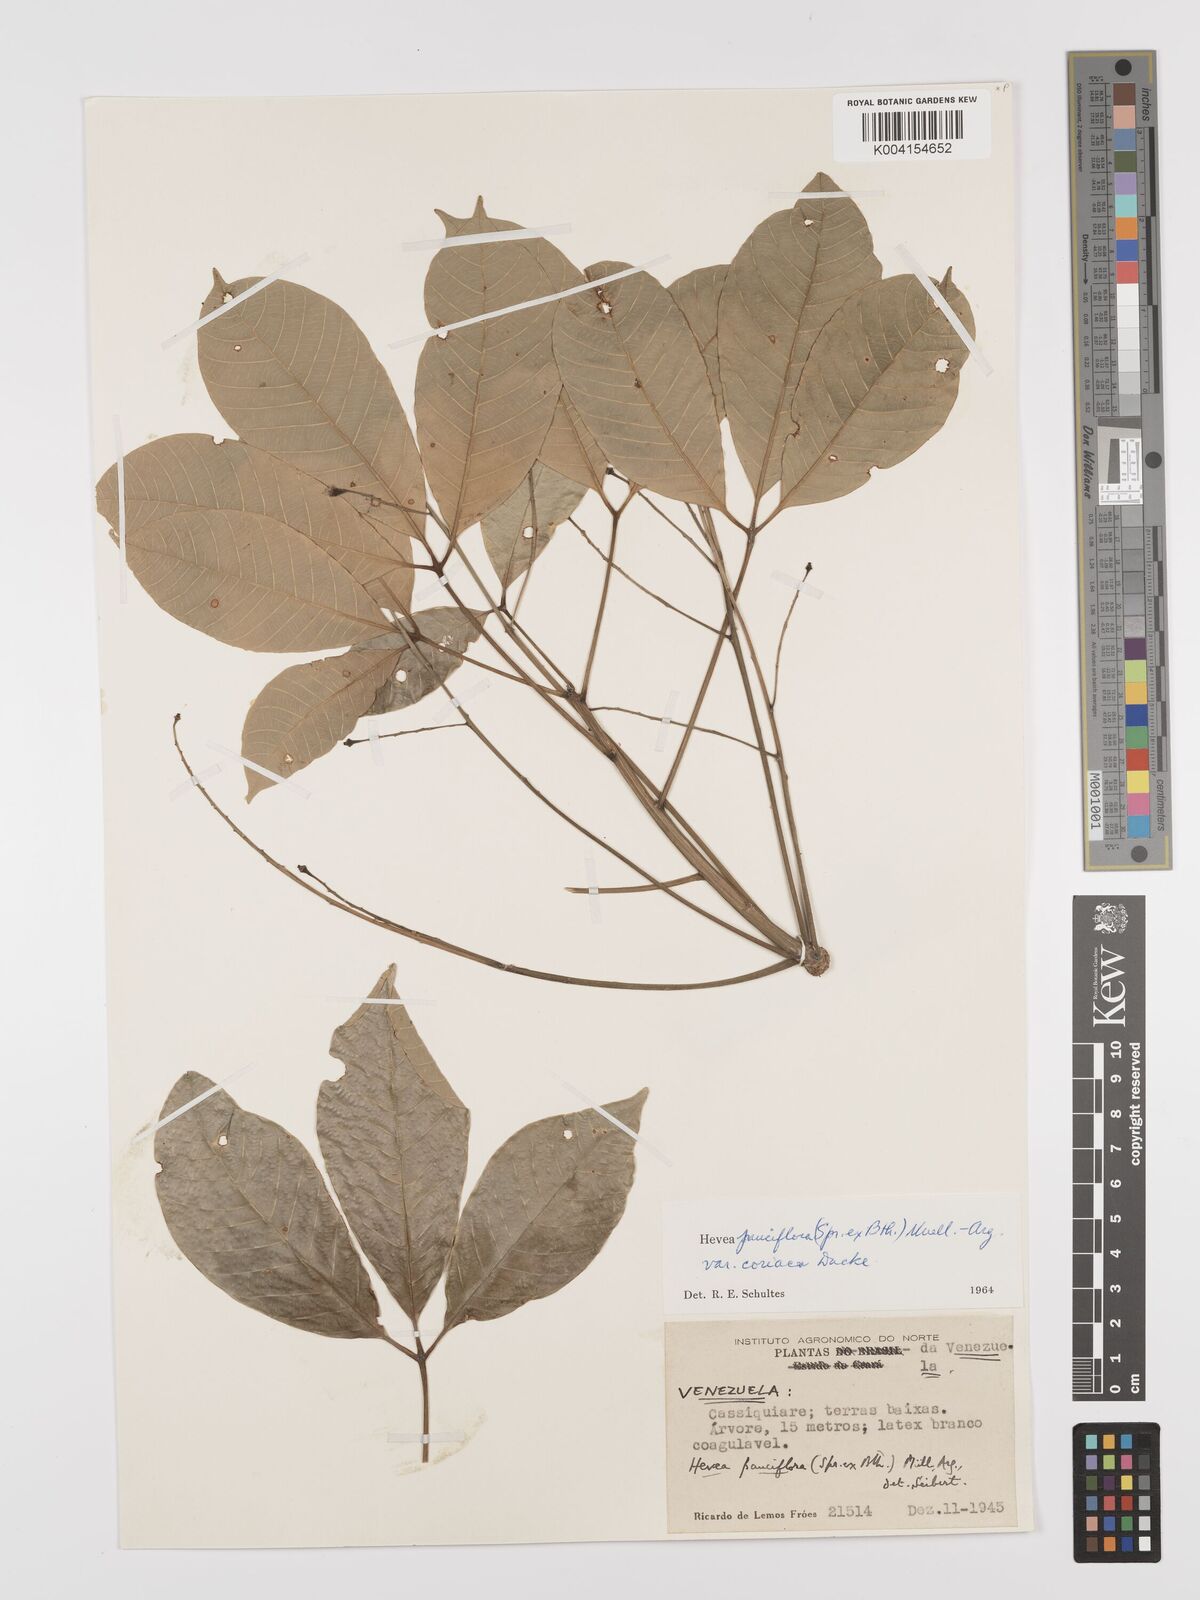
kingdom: Plantae
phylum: Tracheophyta
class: Magnoliopsida
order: Malpighiales
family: Euphorbiaceae
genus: Hevea
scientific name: Hevea pauciflora
